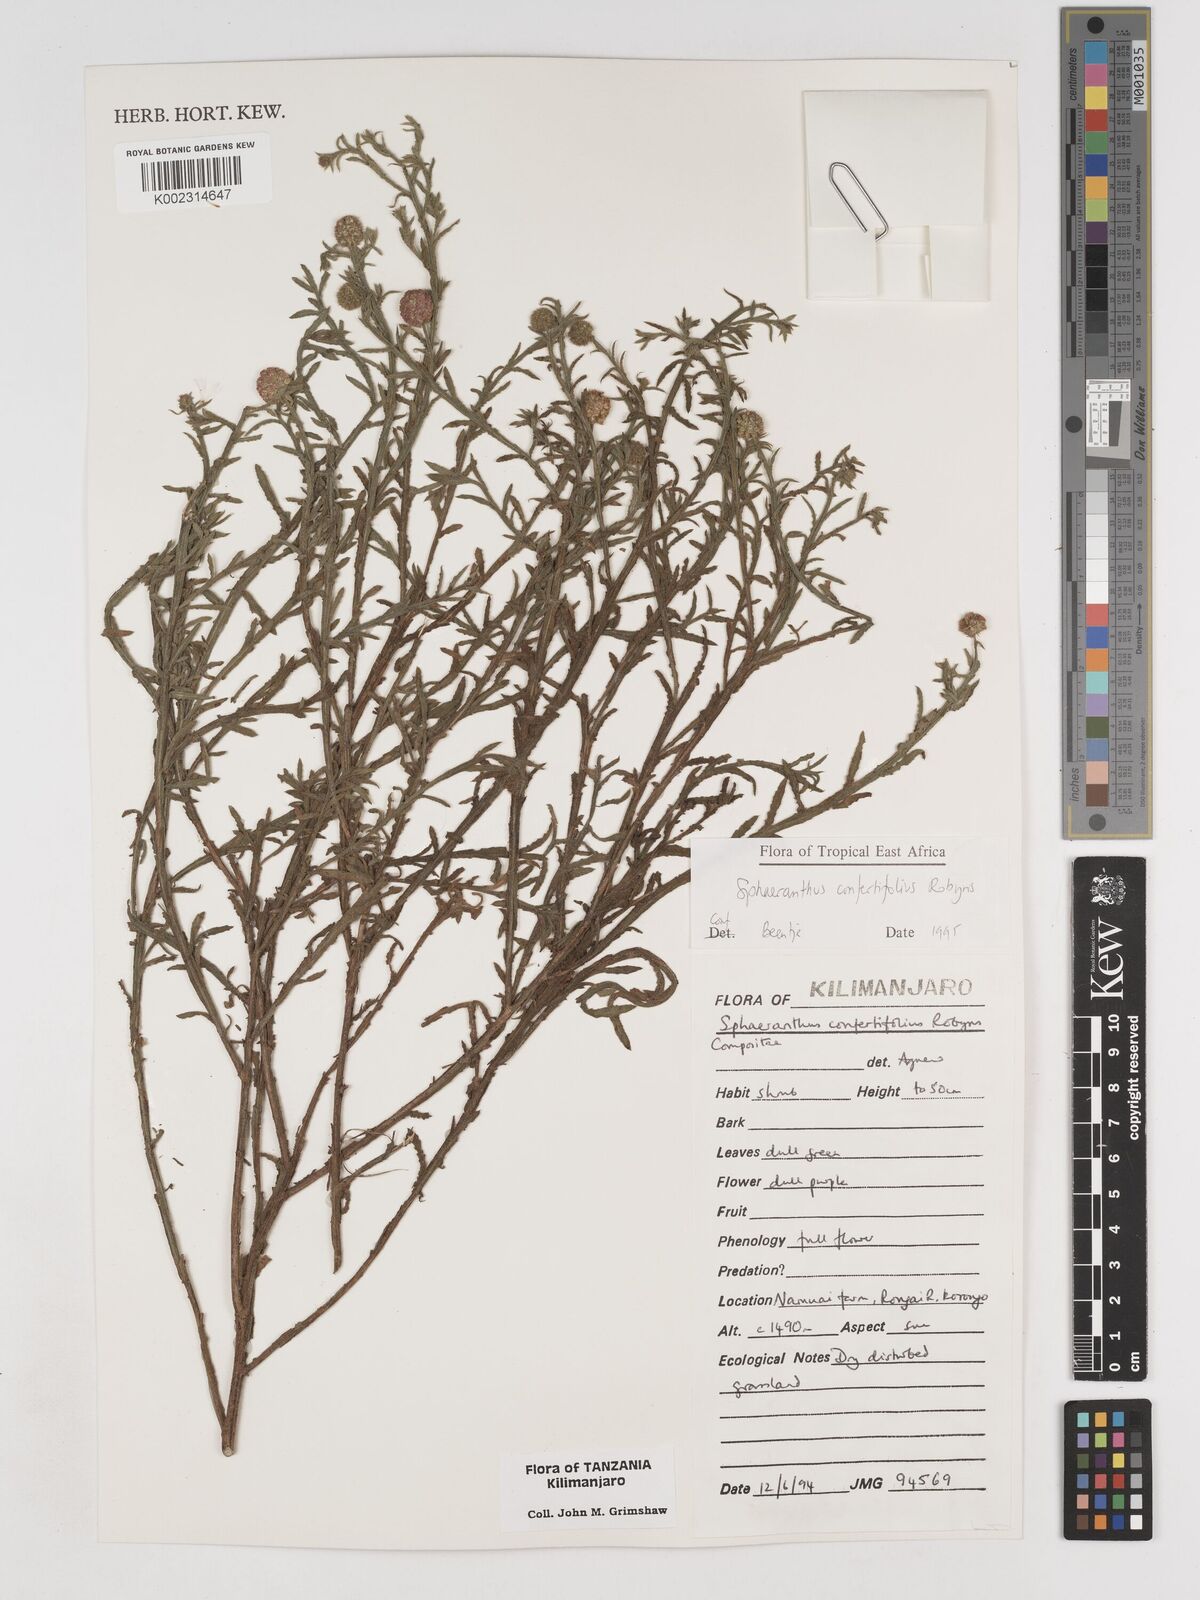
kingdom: Plantae
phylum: Tracheophyta
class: Magnoliopsida
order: Asterales
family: Asteraceae
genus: Sphaeranthus
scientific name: Sphaeranthus confertifolius
